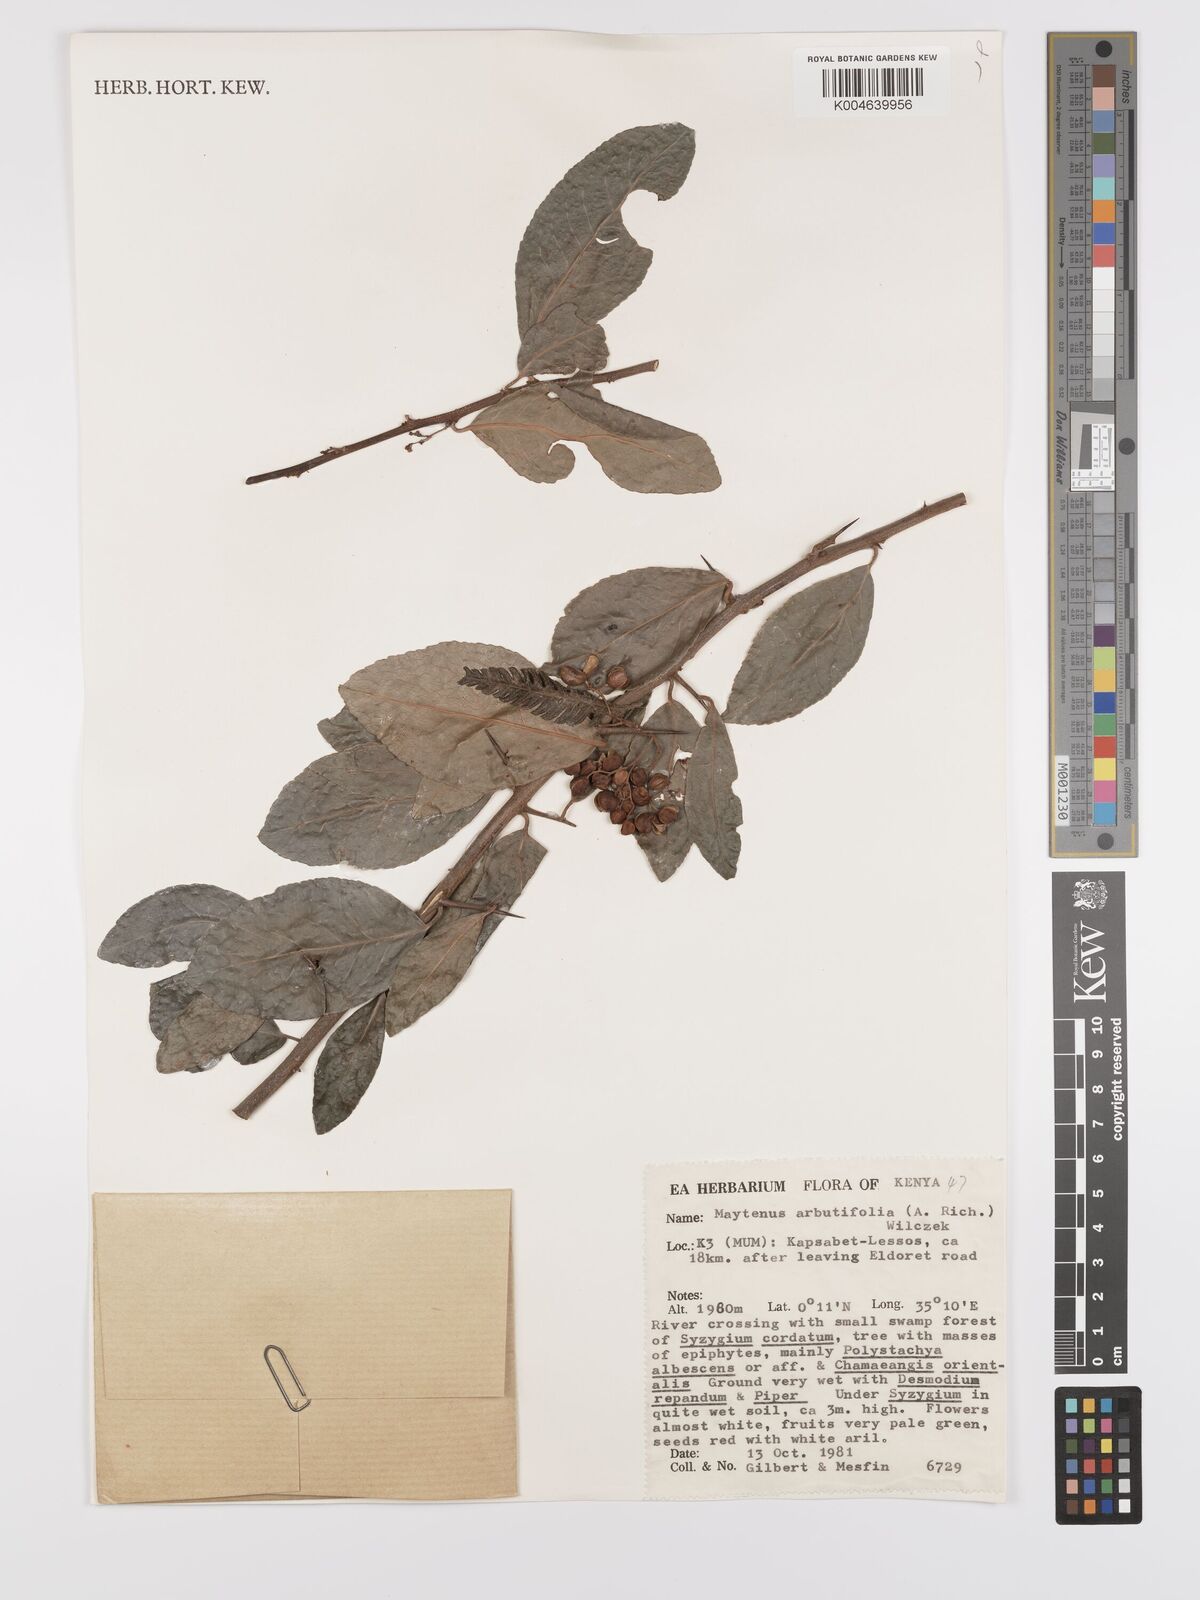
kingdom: Plantae
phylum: Tracheophyta
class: Magnoliopsida
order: Celastrales
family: Celastraceae
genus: Gymnosporia
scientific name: Gymnosporia arbutifolia
